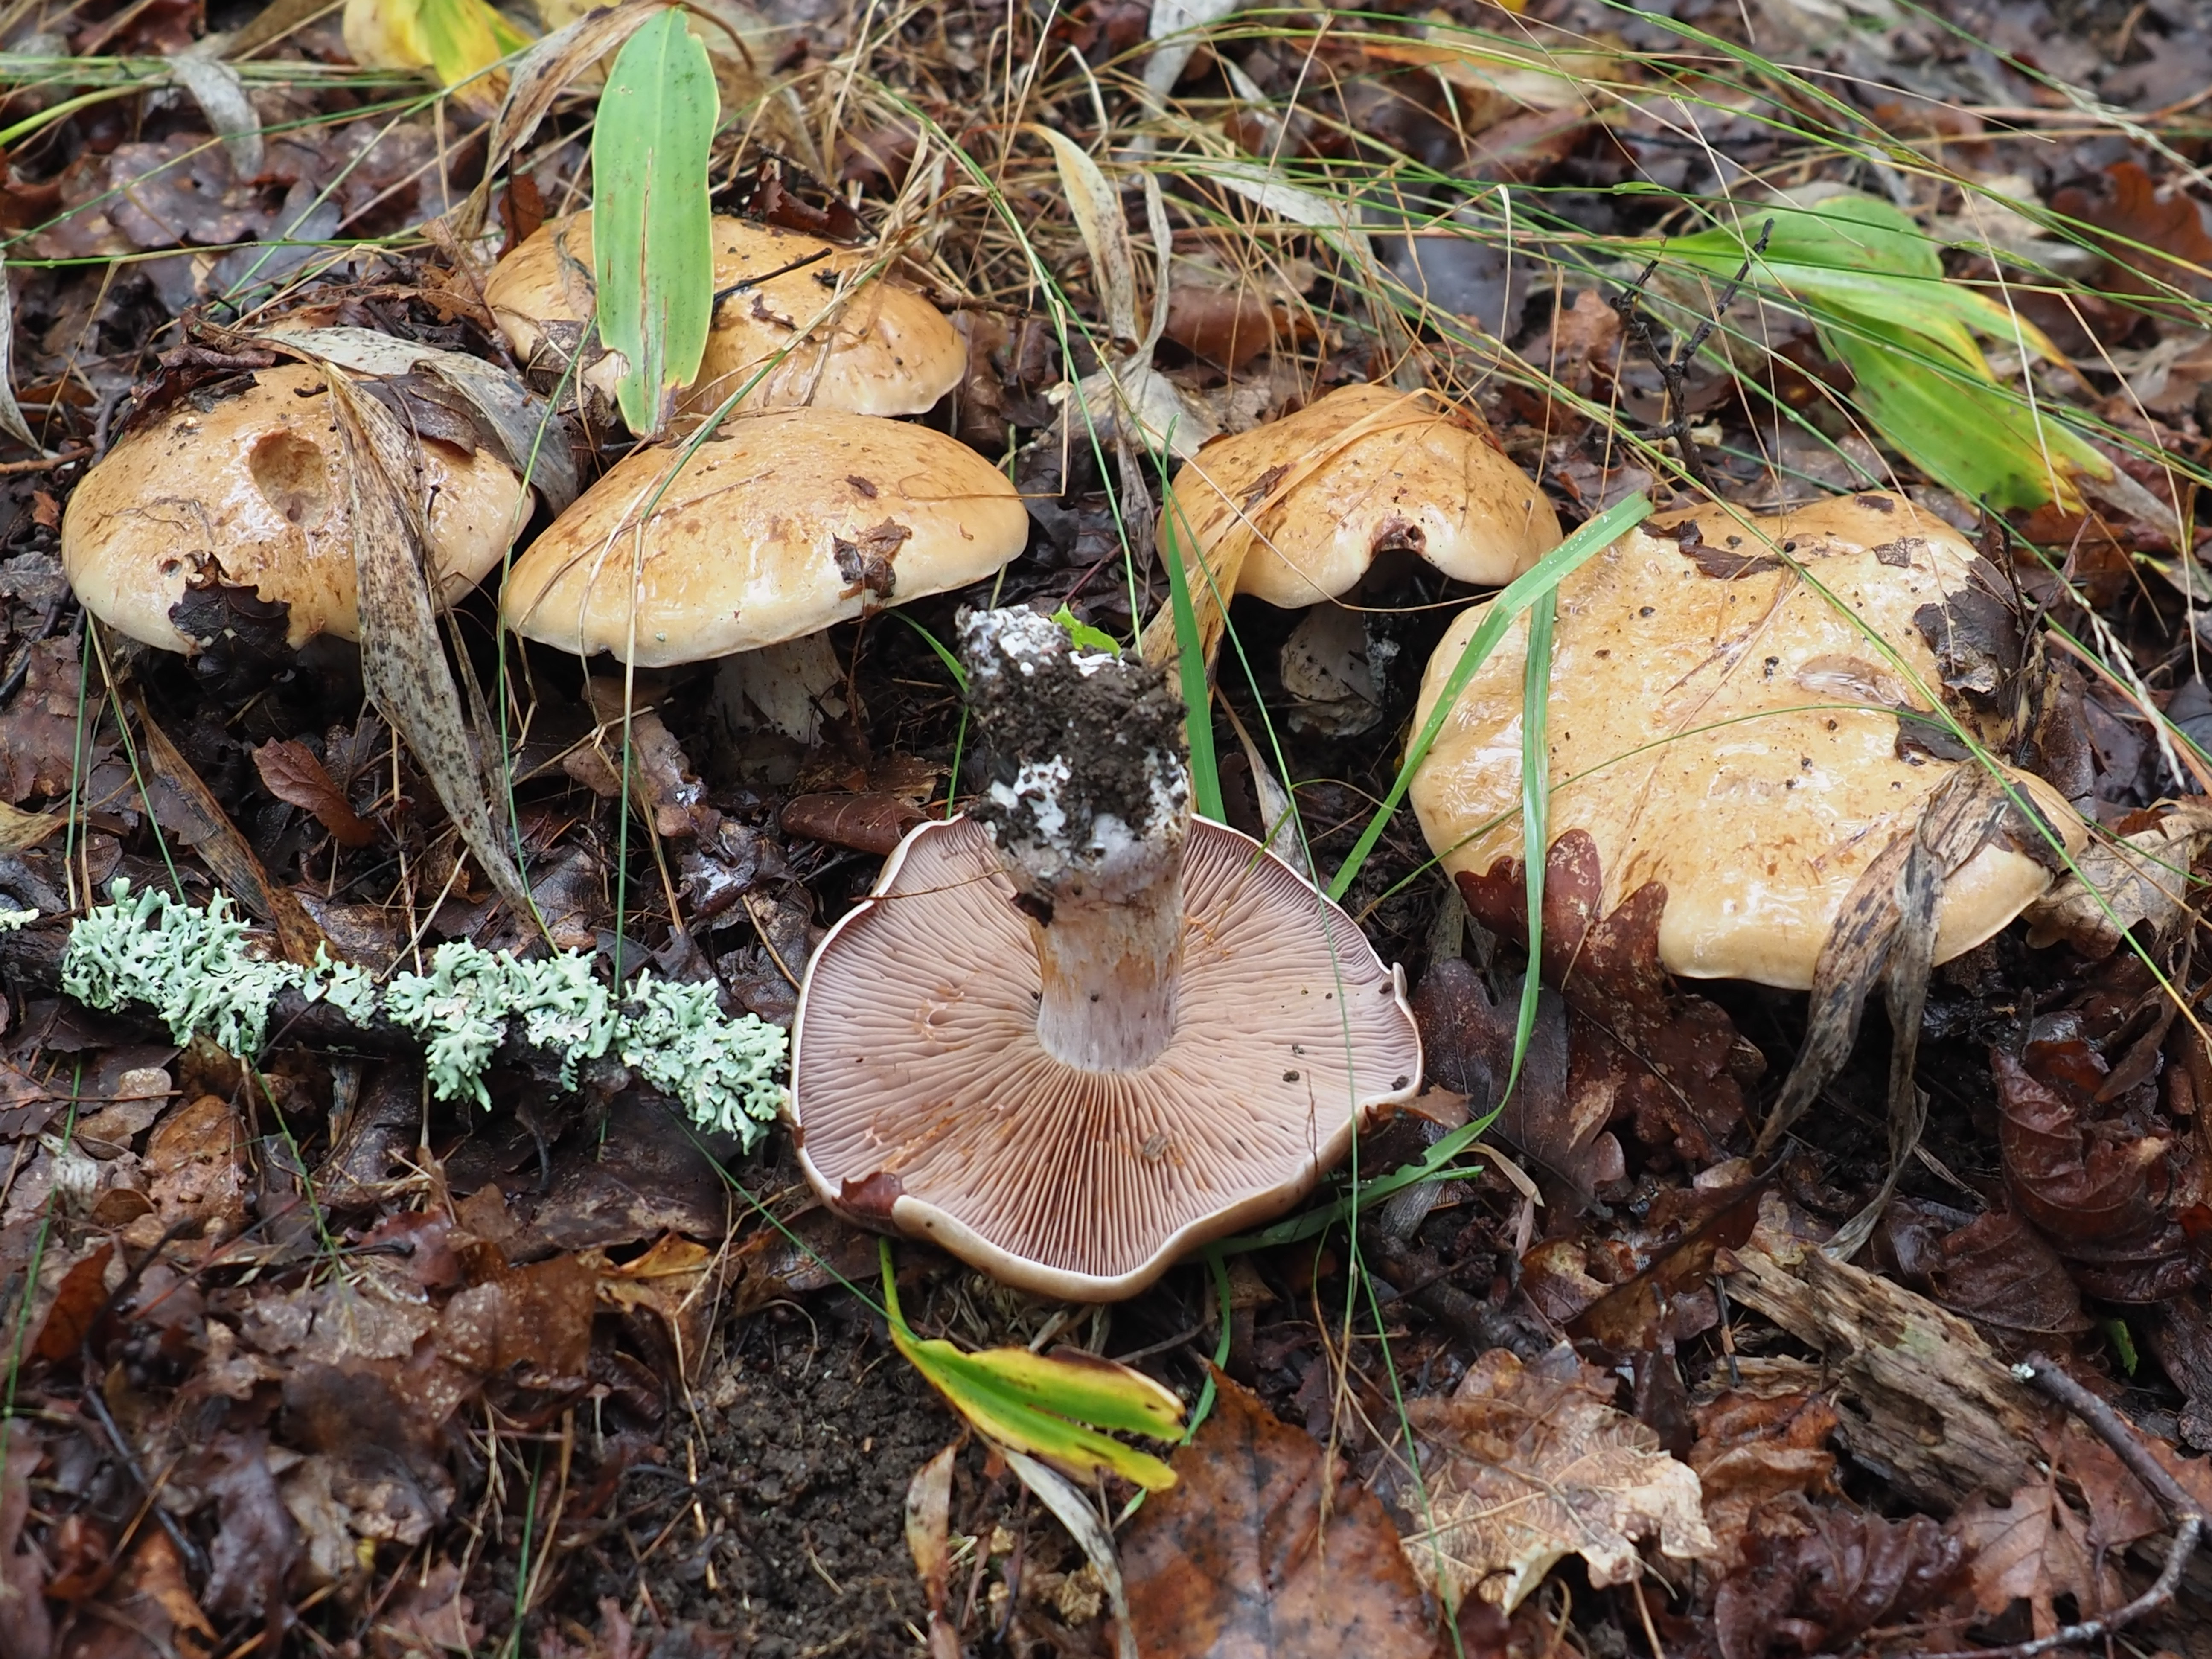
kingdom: Fungi
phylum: Basidiomycota
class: Agaricomycetes
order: Agaricales
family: Cortinariaceae
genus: Thaxterogaster
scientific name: Thaxterogaster subpurpurascens
